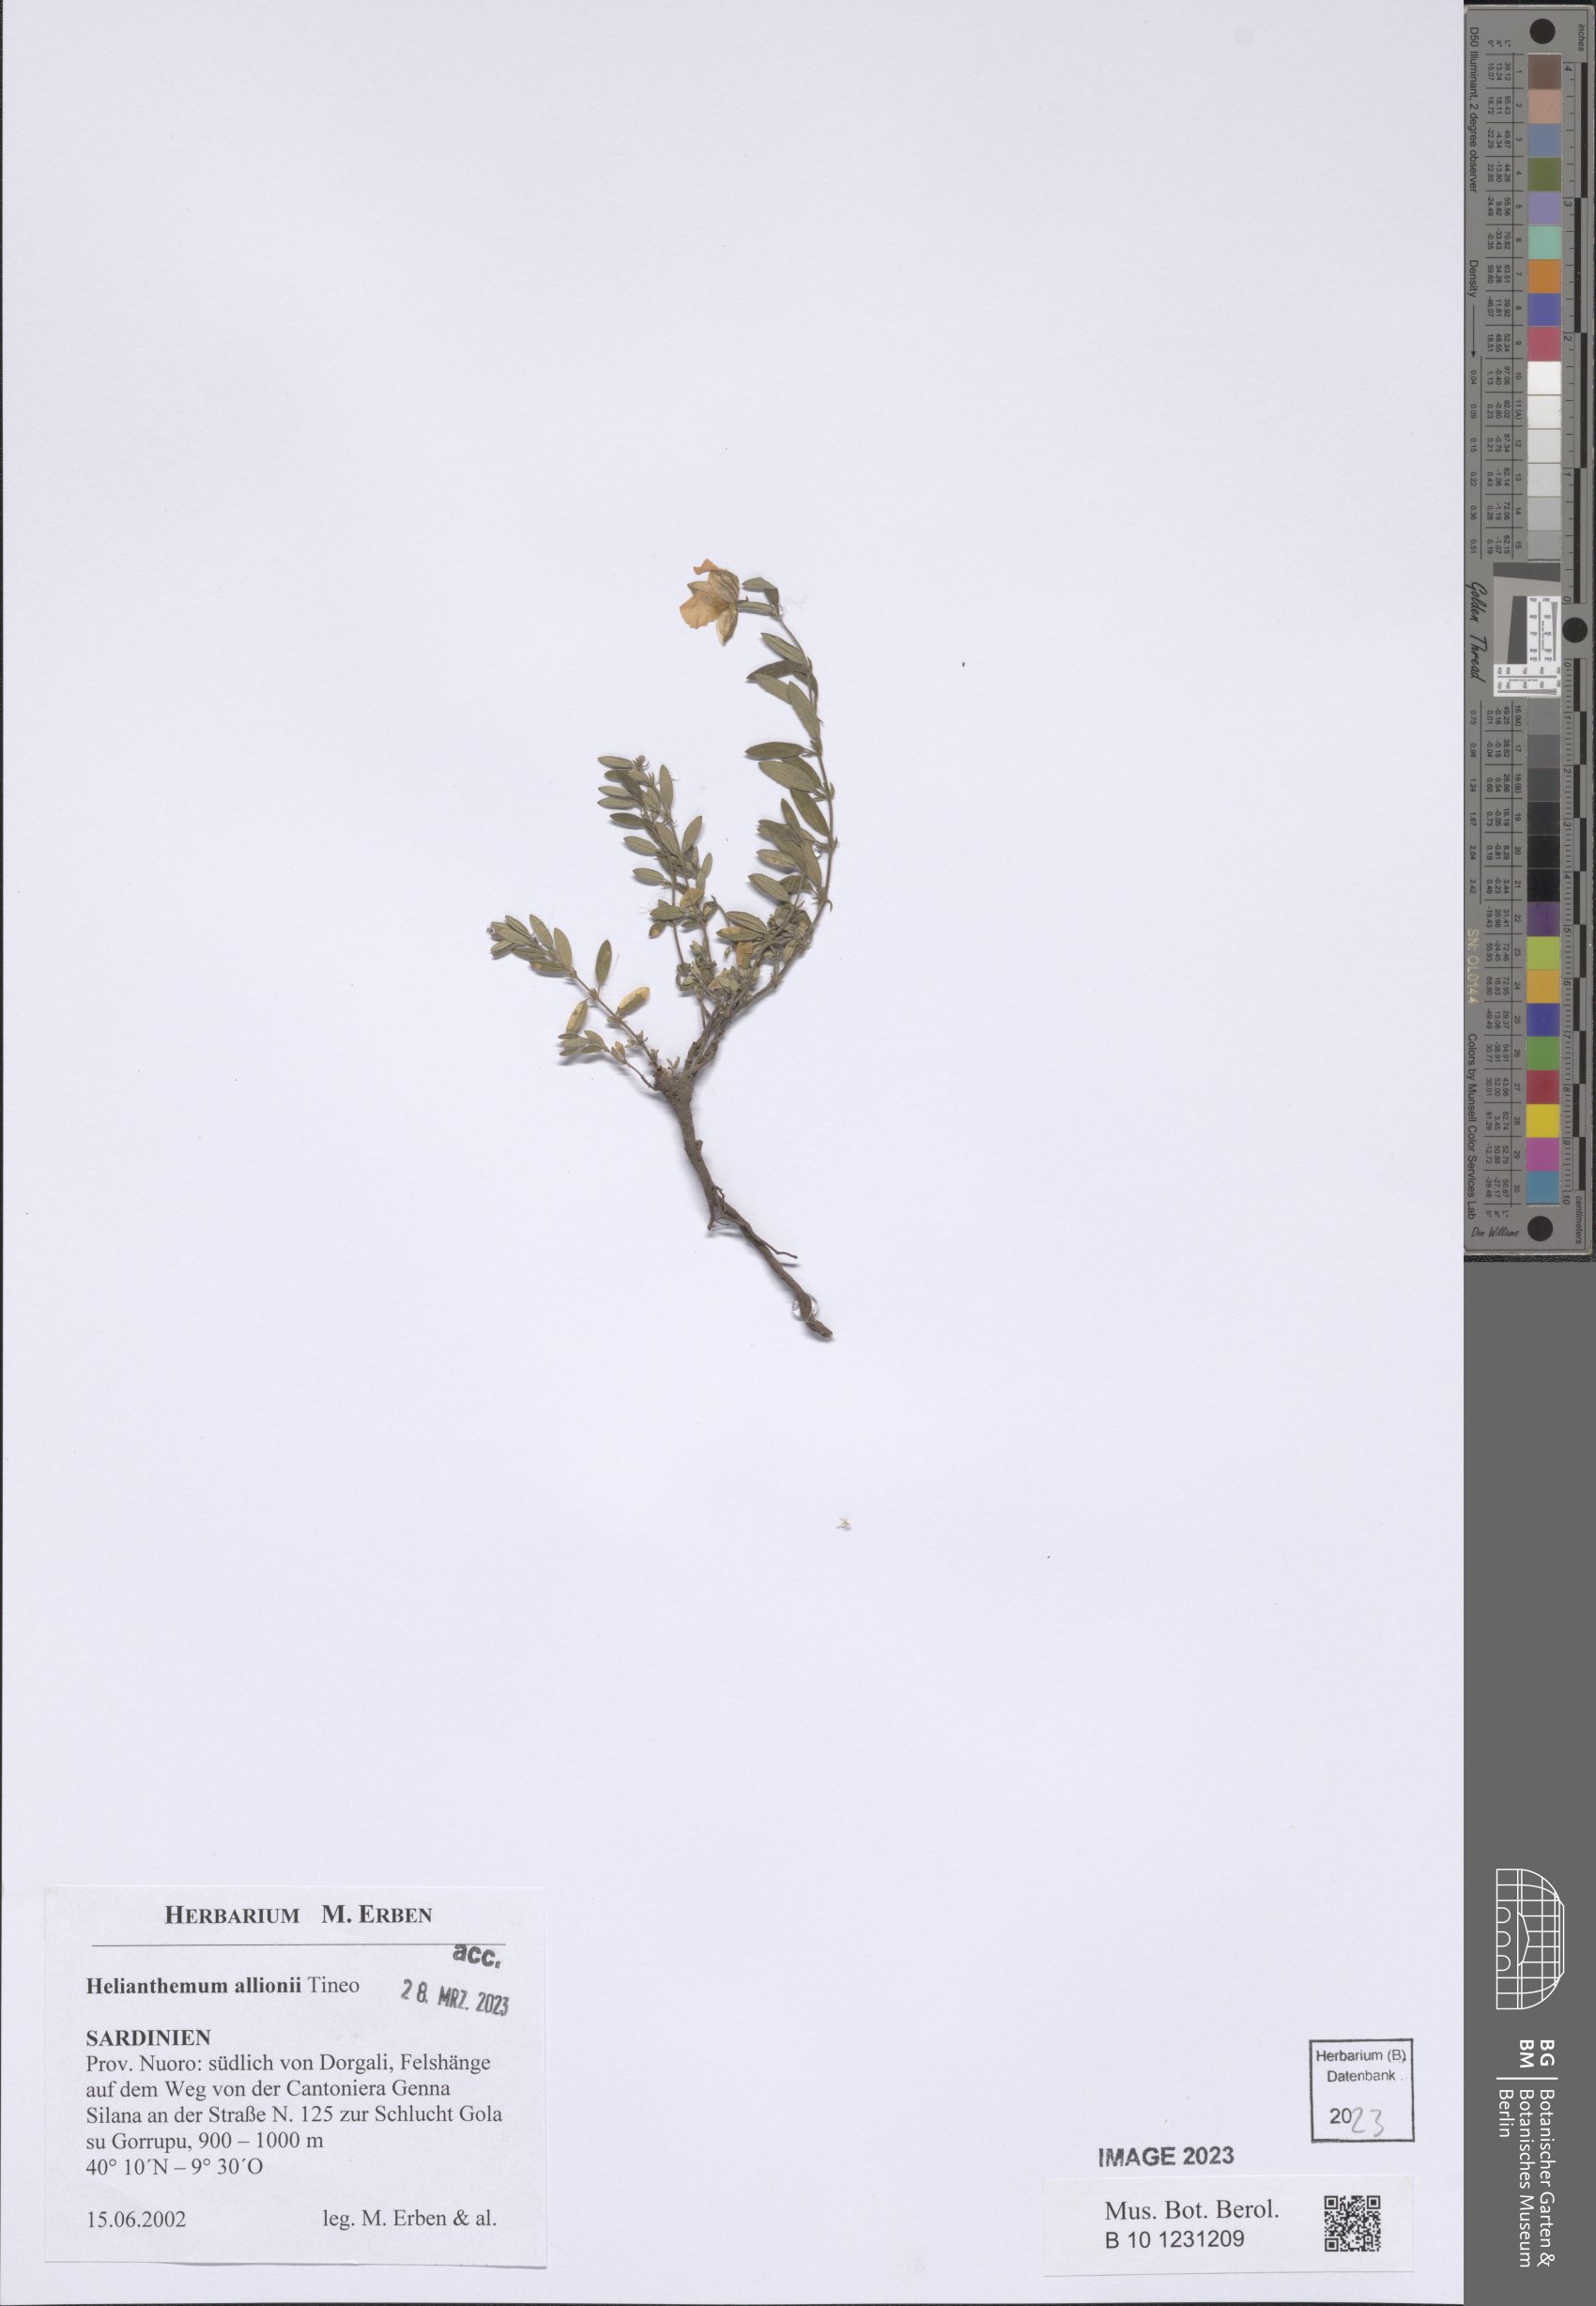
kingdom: Plantae
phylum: Tracheophyta
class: Magnoliopsida
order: Malvales
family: Cistaceae
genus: Helianthemum
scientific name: Helianthemum nebrodense
